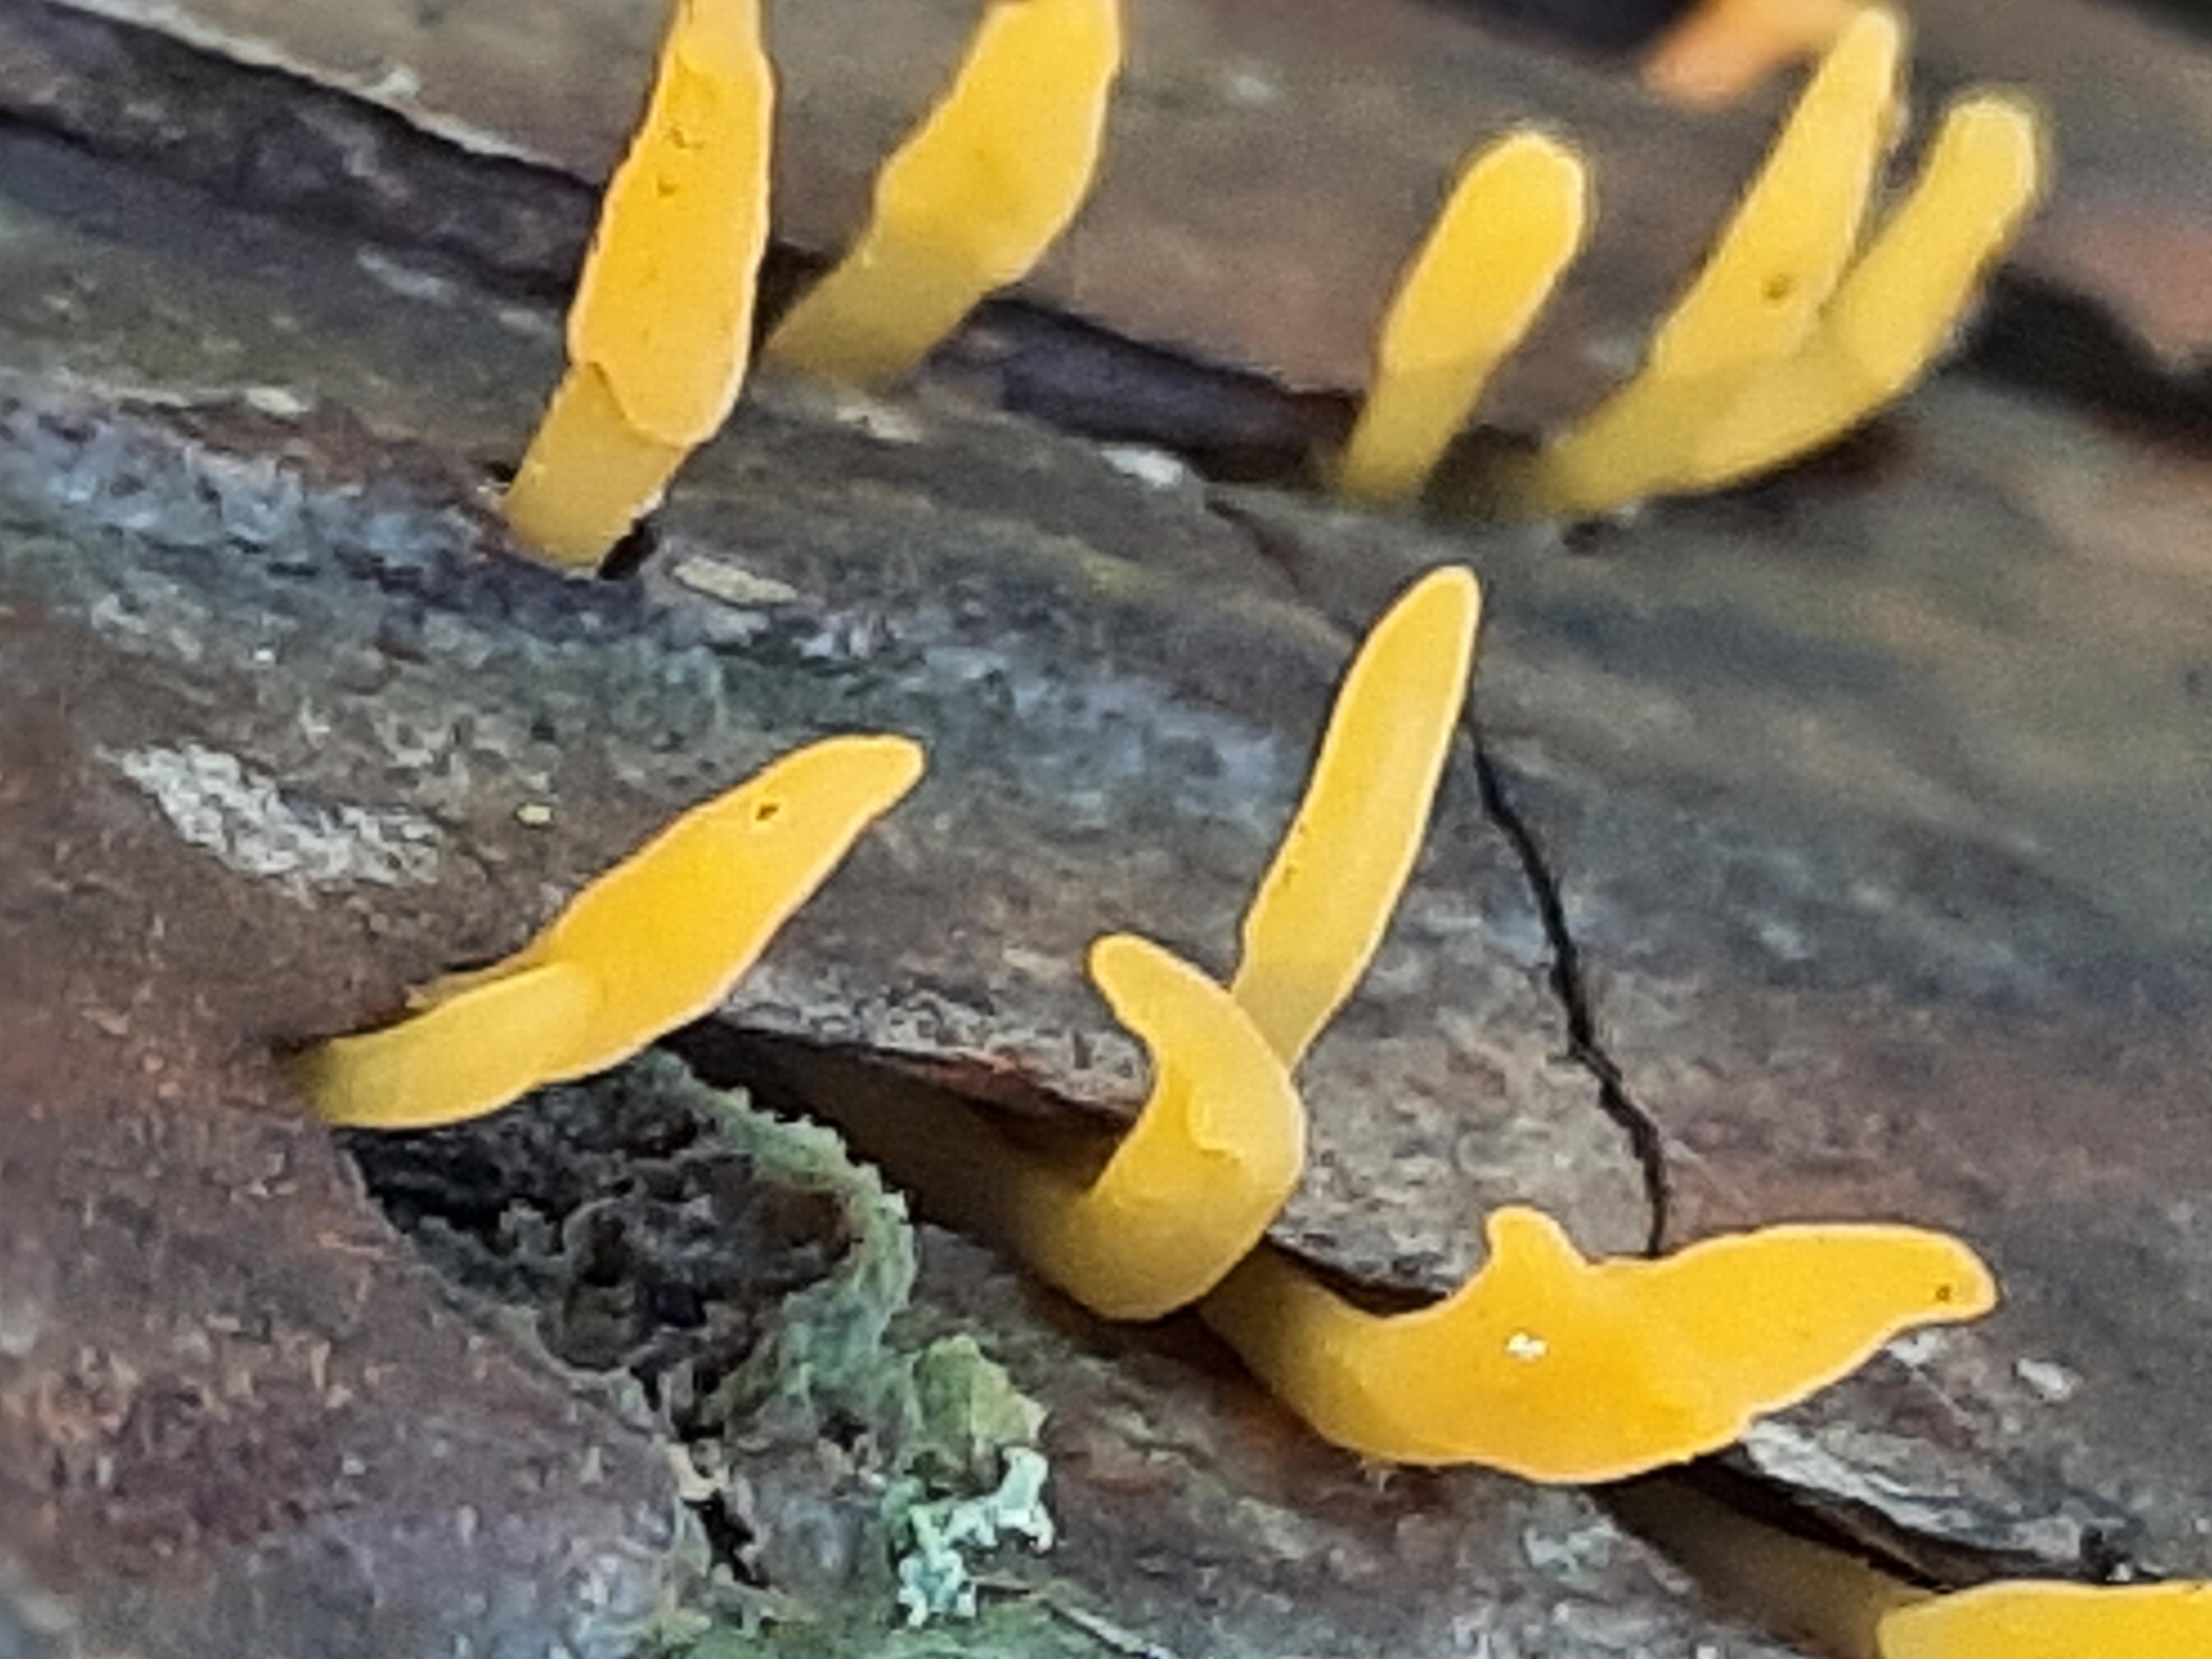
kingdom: Fungi
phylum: Basidiomycota
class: Dacrymycetes
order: Dacrymycetales
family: Dacrymycetaceae
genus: Calocera
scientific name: Calocera cornea
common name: liden guldgaffel
